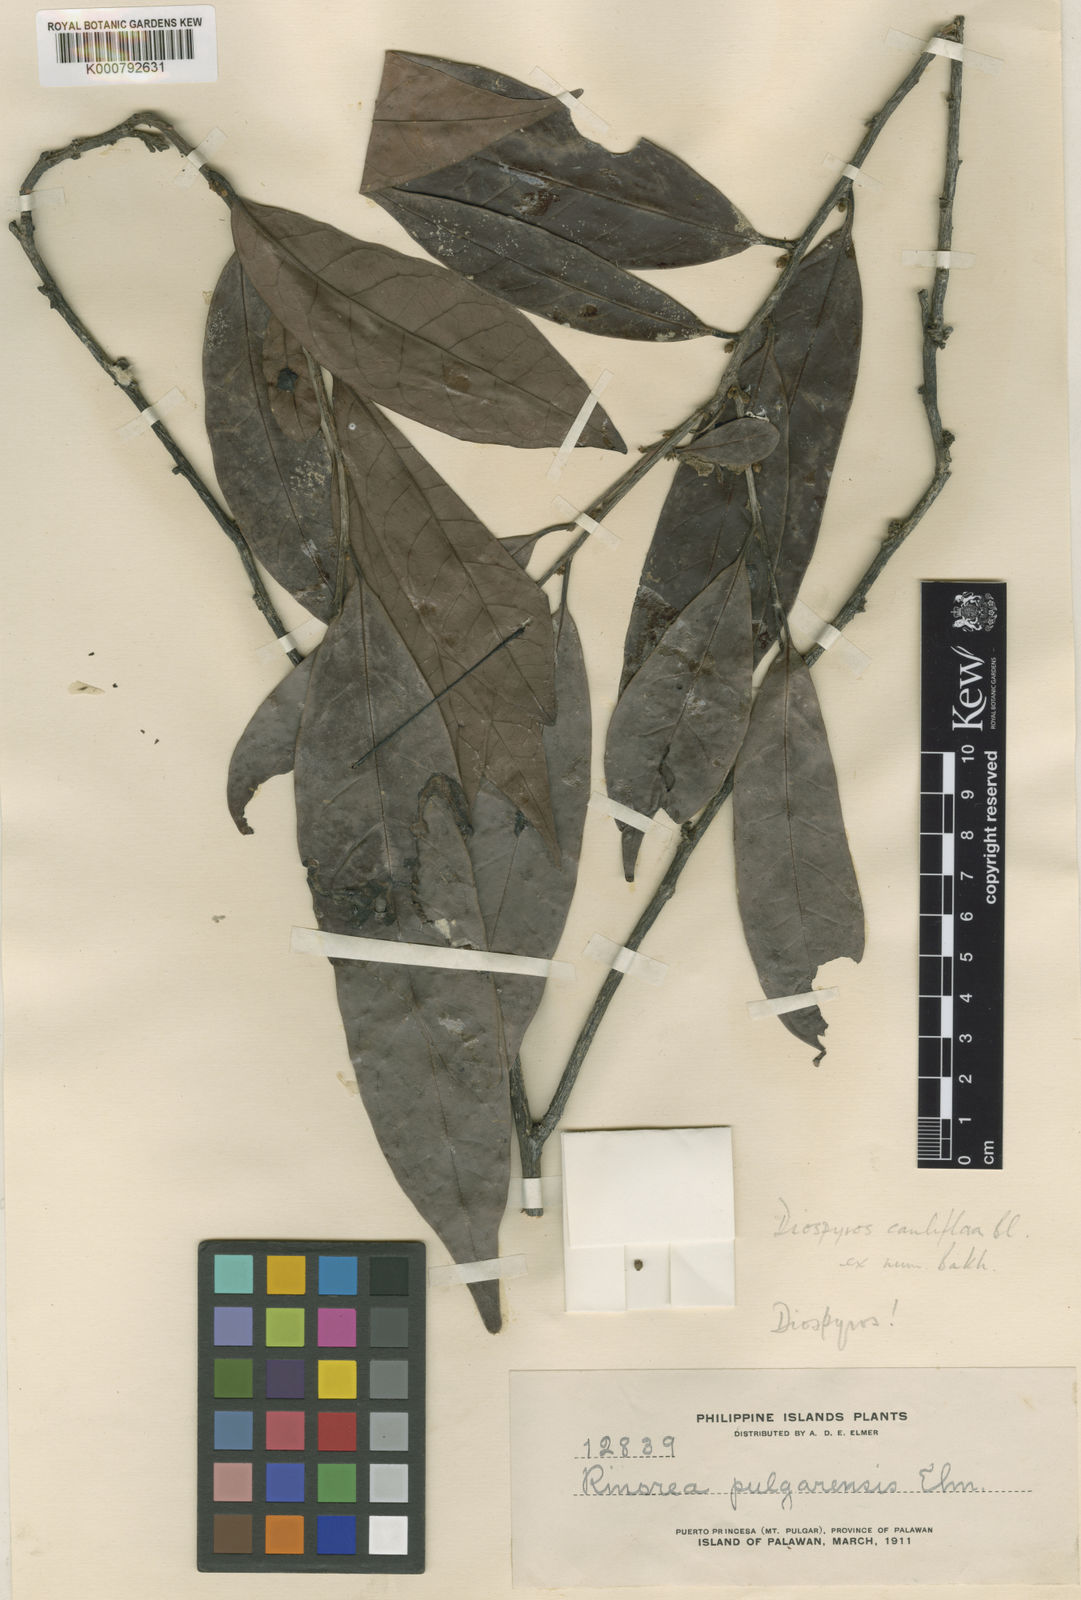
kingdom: Plantae
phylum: Tracheophyta
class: Magnoliopsida
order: Ericales
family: Ebenaceae
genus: Diospyros
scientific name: Diospyros cauliflora
